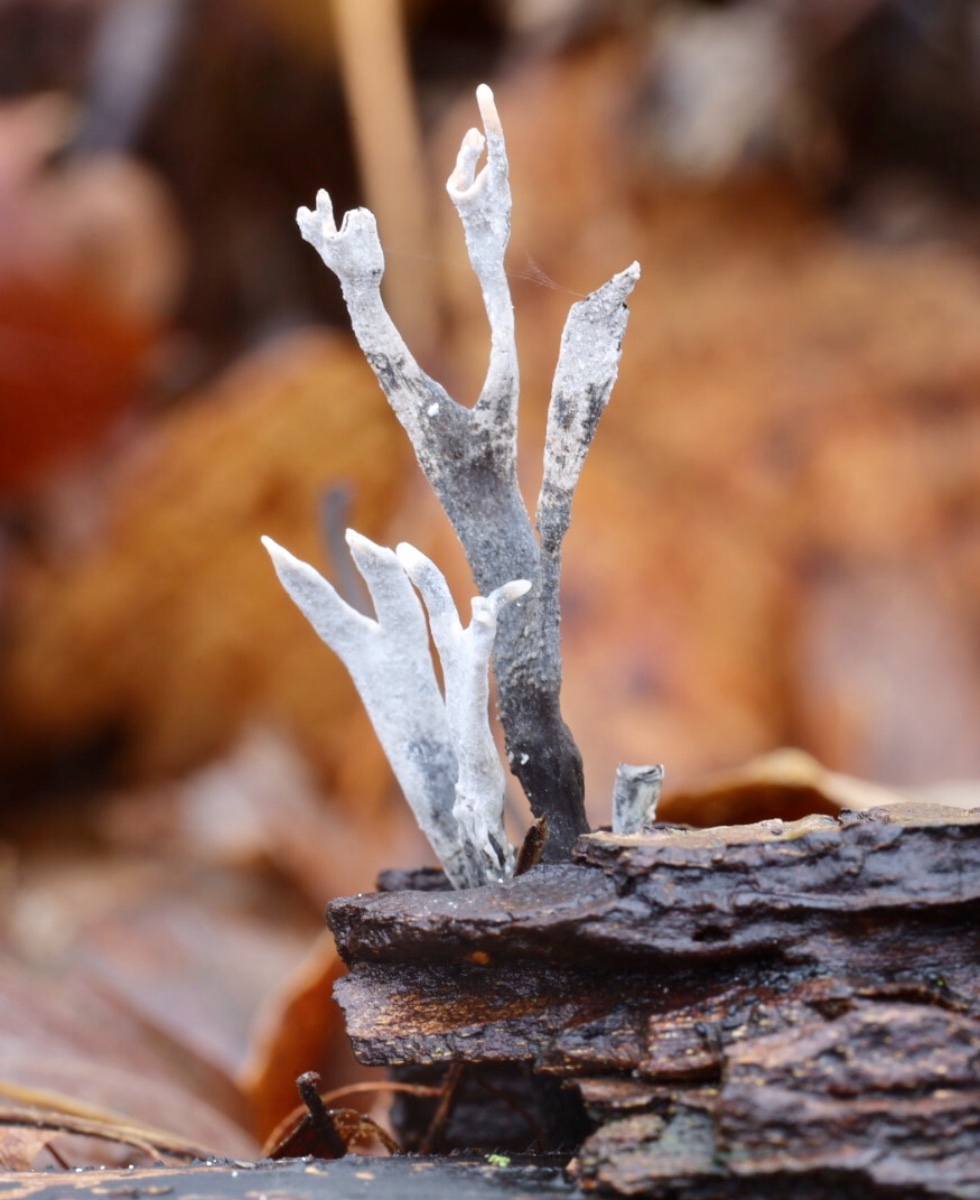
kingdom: Fungi
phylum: Ascomycota
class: Sordariomycetes
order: Xylariales
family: Xylariaceae
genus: Xylaria
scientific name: Xylaria hypoxylon
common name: grenet stødsvamp
